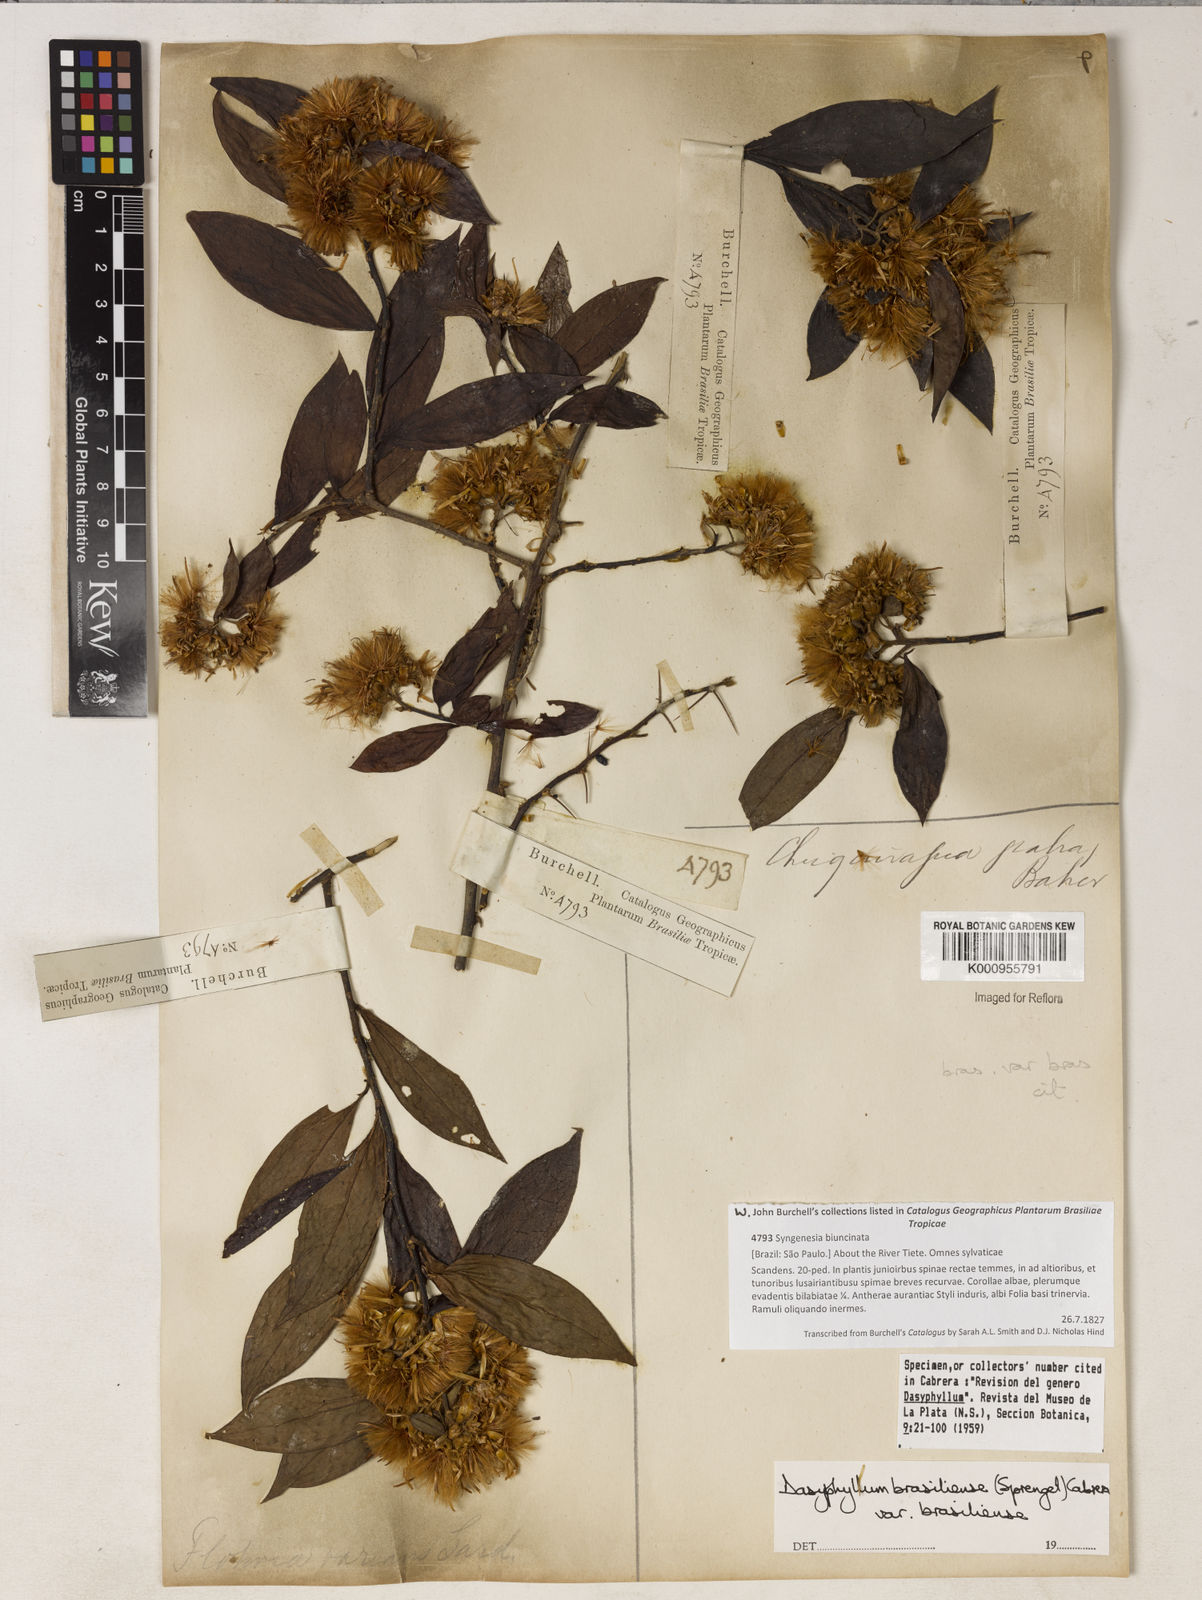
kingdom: Plantae
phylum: Tracheophyta
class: Magnoliopsida
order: Asterales
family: Asteraceae
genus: Dasyphyllum
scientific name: Dasyphyllum brasiliense
